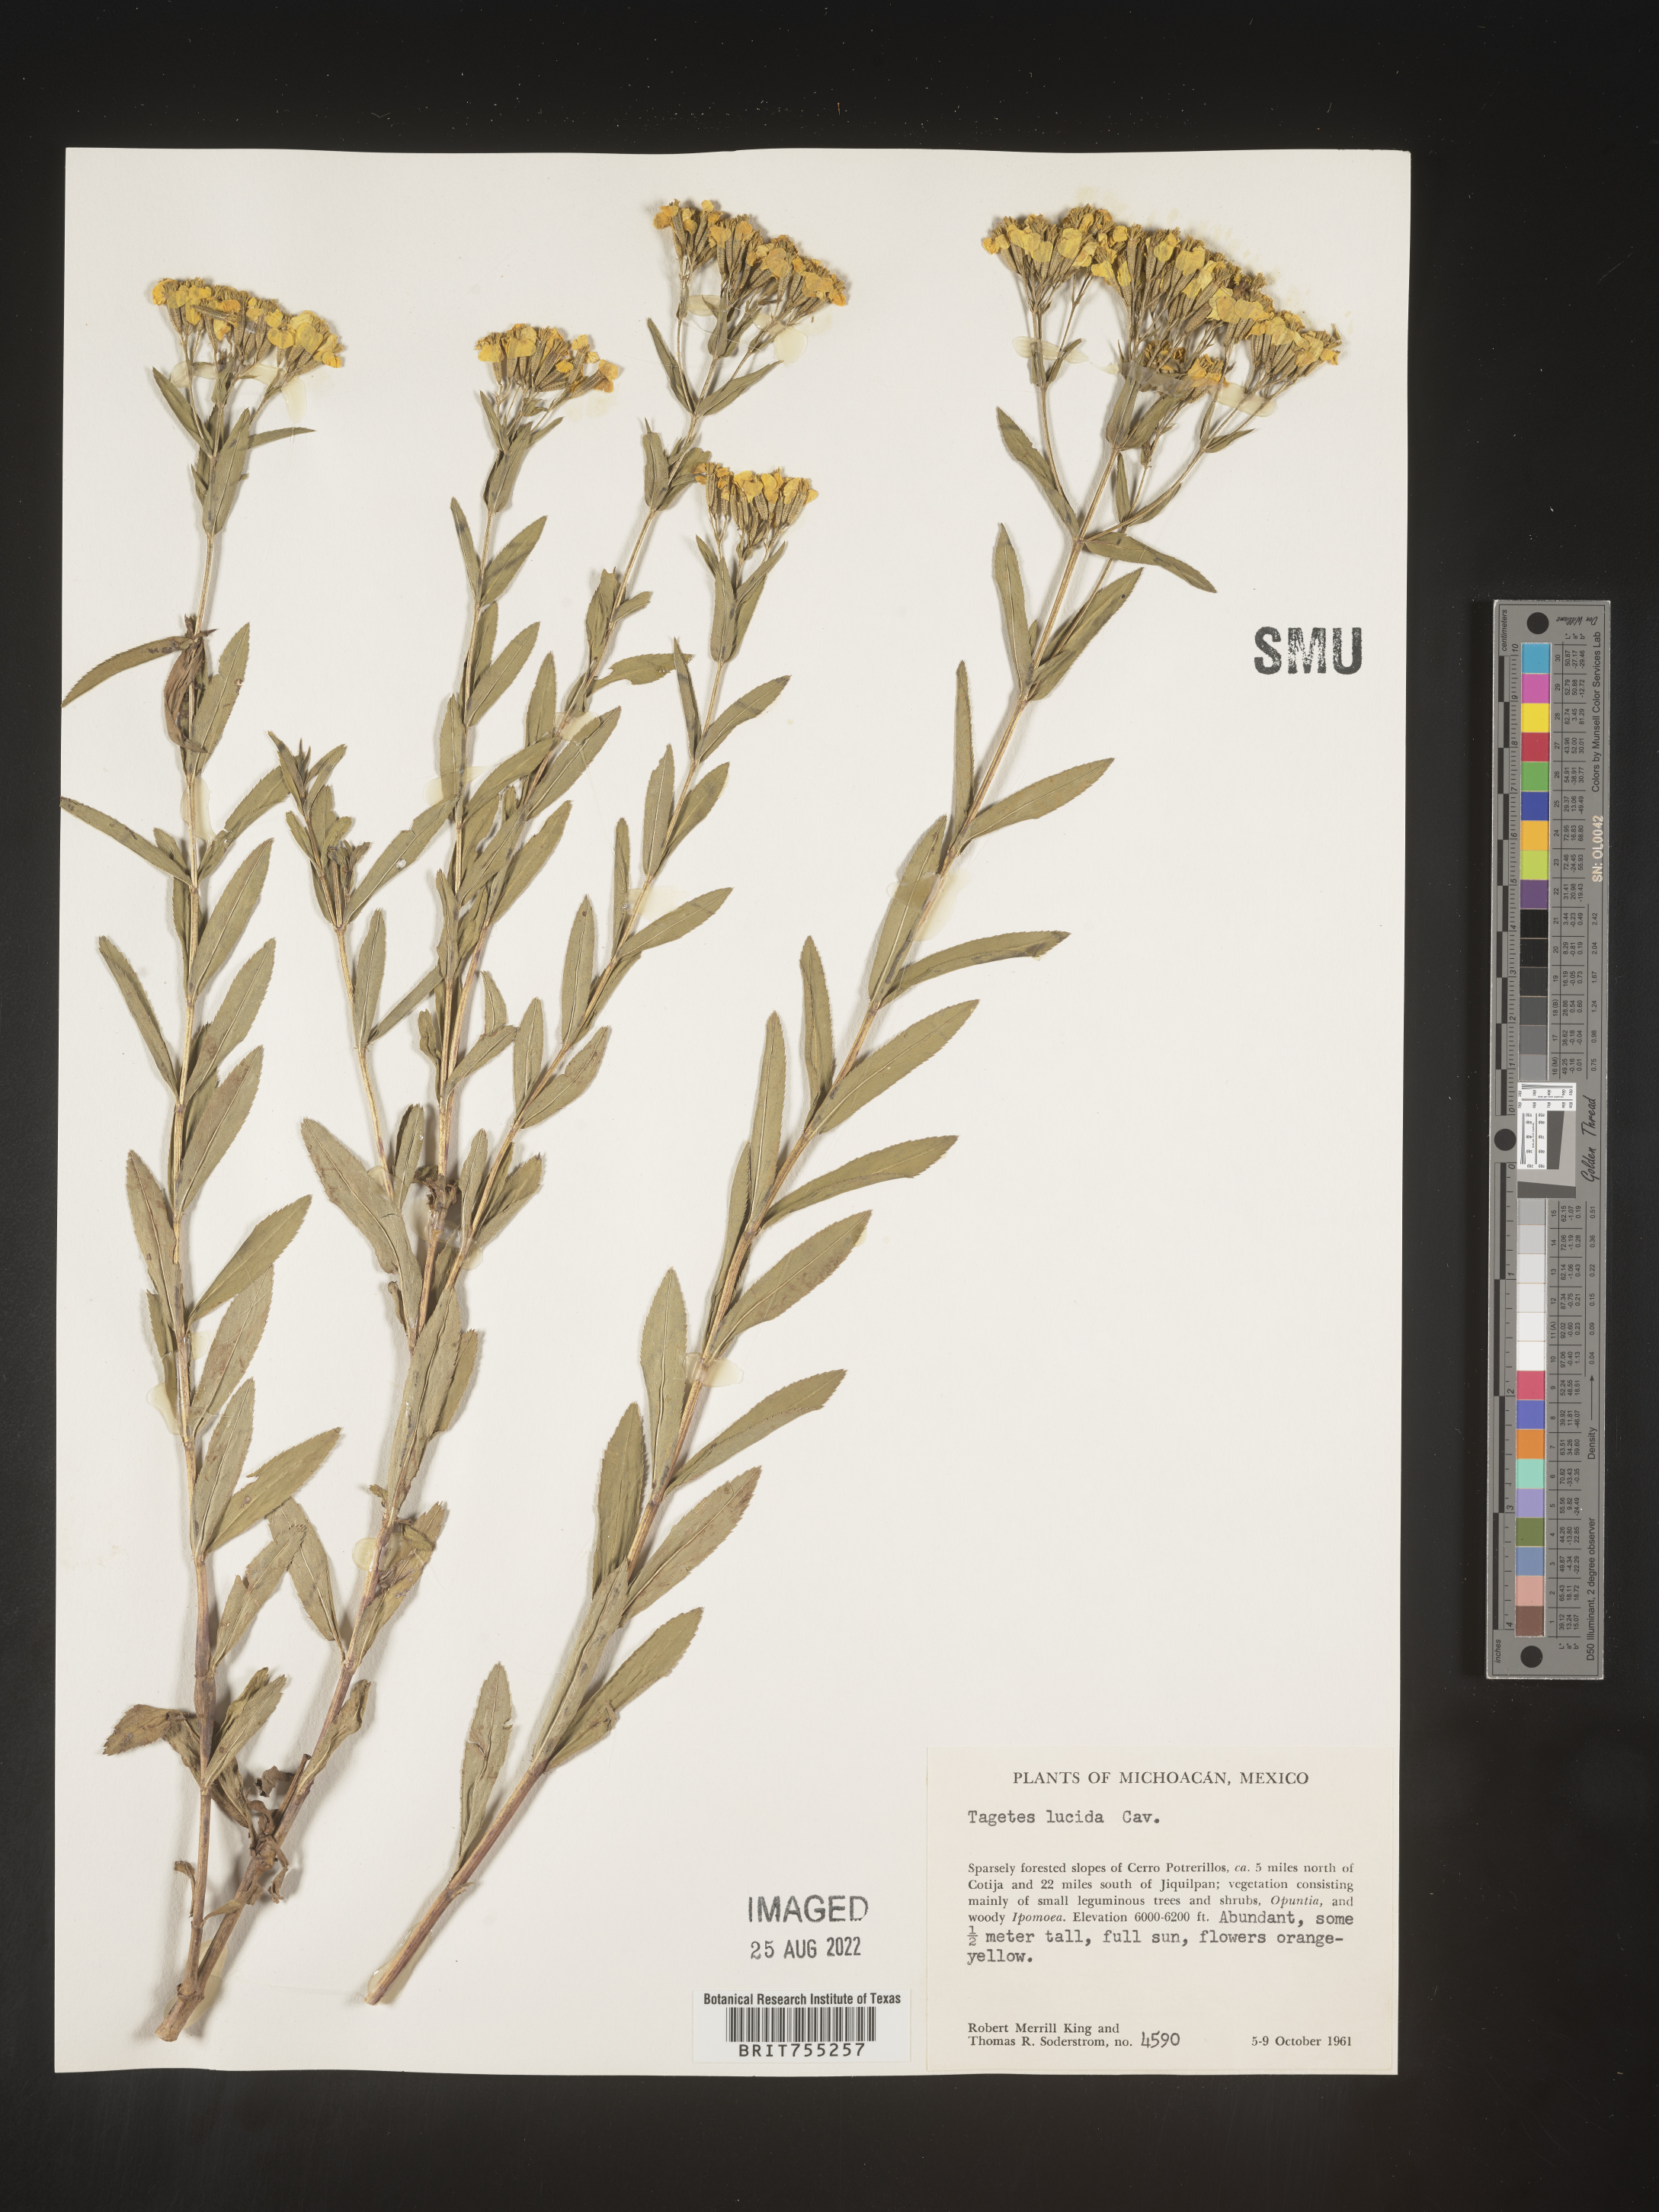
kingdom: Plantae
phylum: Tracheophyta
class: Magnoliopsida
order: Asterales
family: Asteraceae
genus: Tagetes
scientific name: Tagetes lucida
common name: Sweetscented marigold
